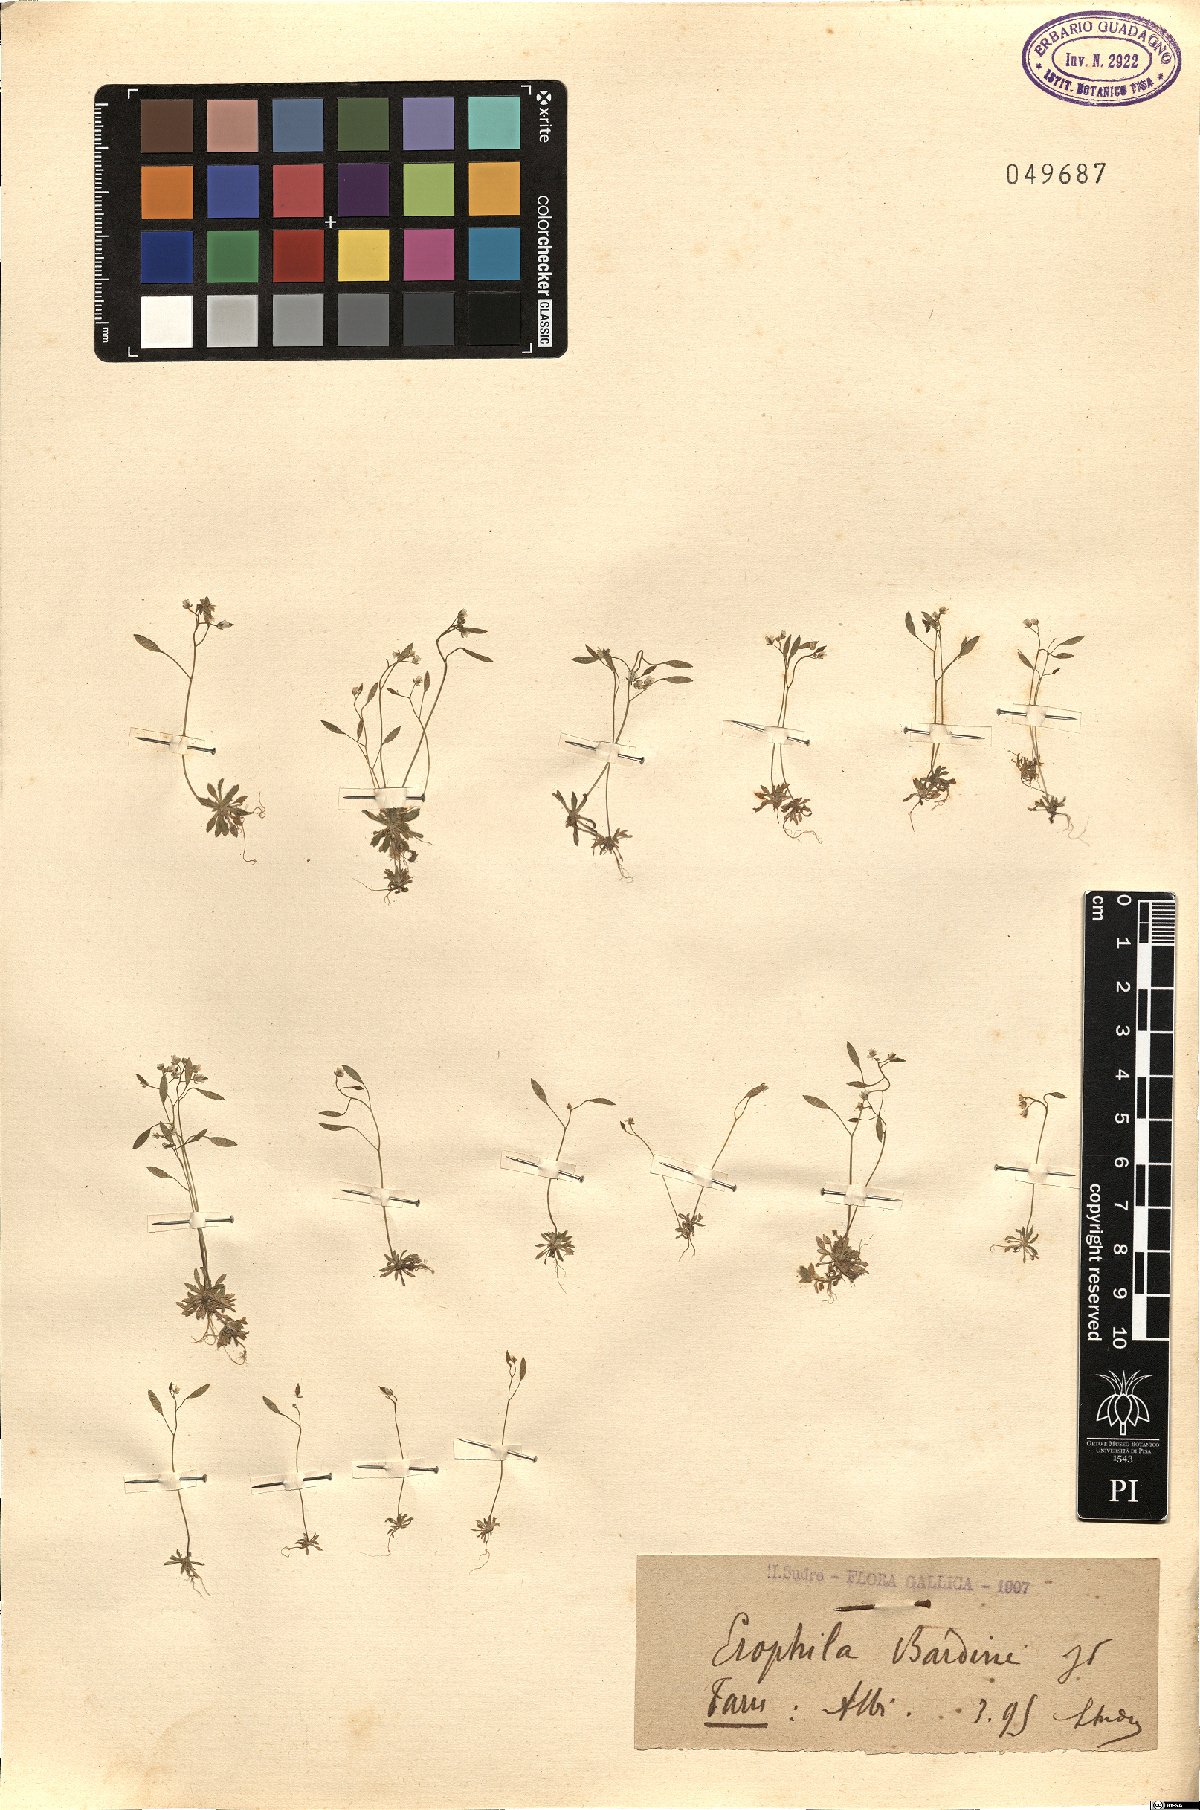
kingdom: Plantae
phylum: Tracheophyta
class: Magnoliopsida
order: Brassicales
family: Brassicaceae
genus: Draba
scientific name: Draba verna
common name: Spring draba
